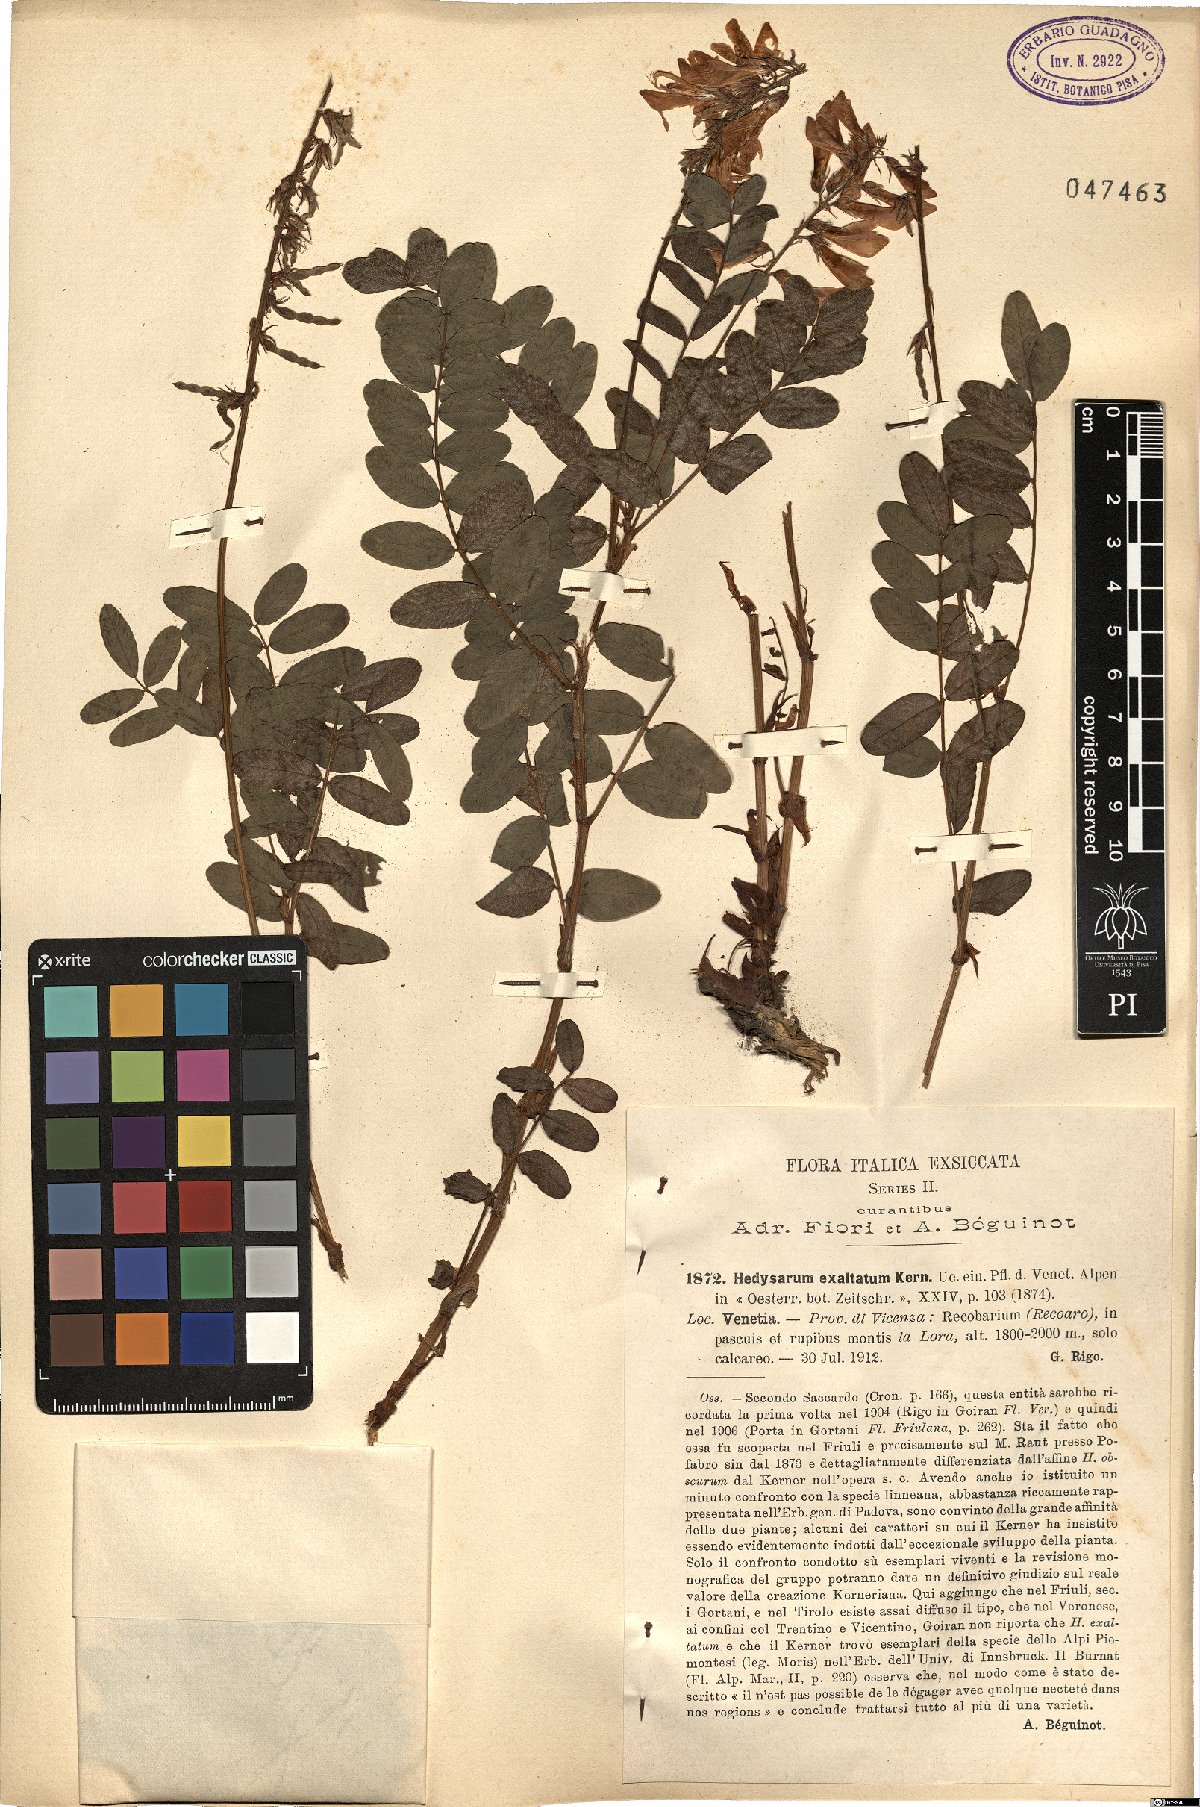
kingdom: Plantae
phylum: Tracheophyta
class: Magnoliopsida
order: Fabales
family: Fabaceae
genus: Hedysarum
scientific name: Hedysarum hedysaroides
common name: Alpine french-honeysuckle
